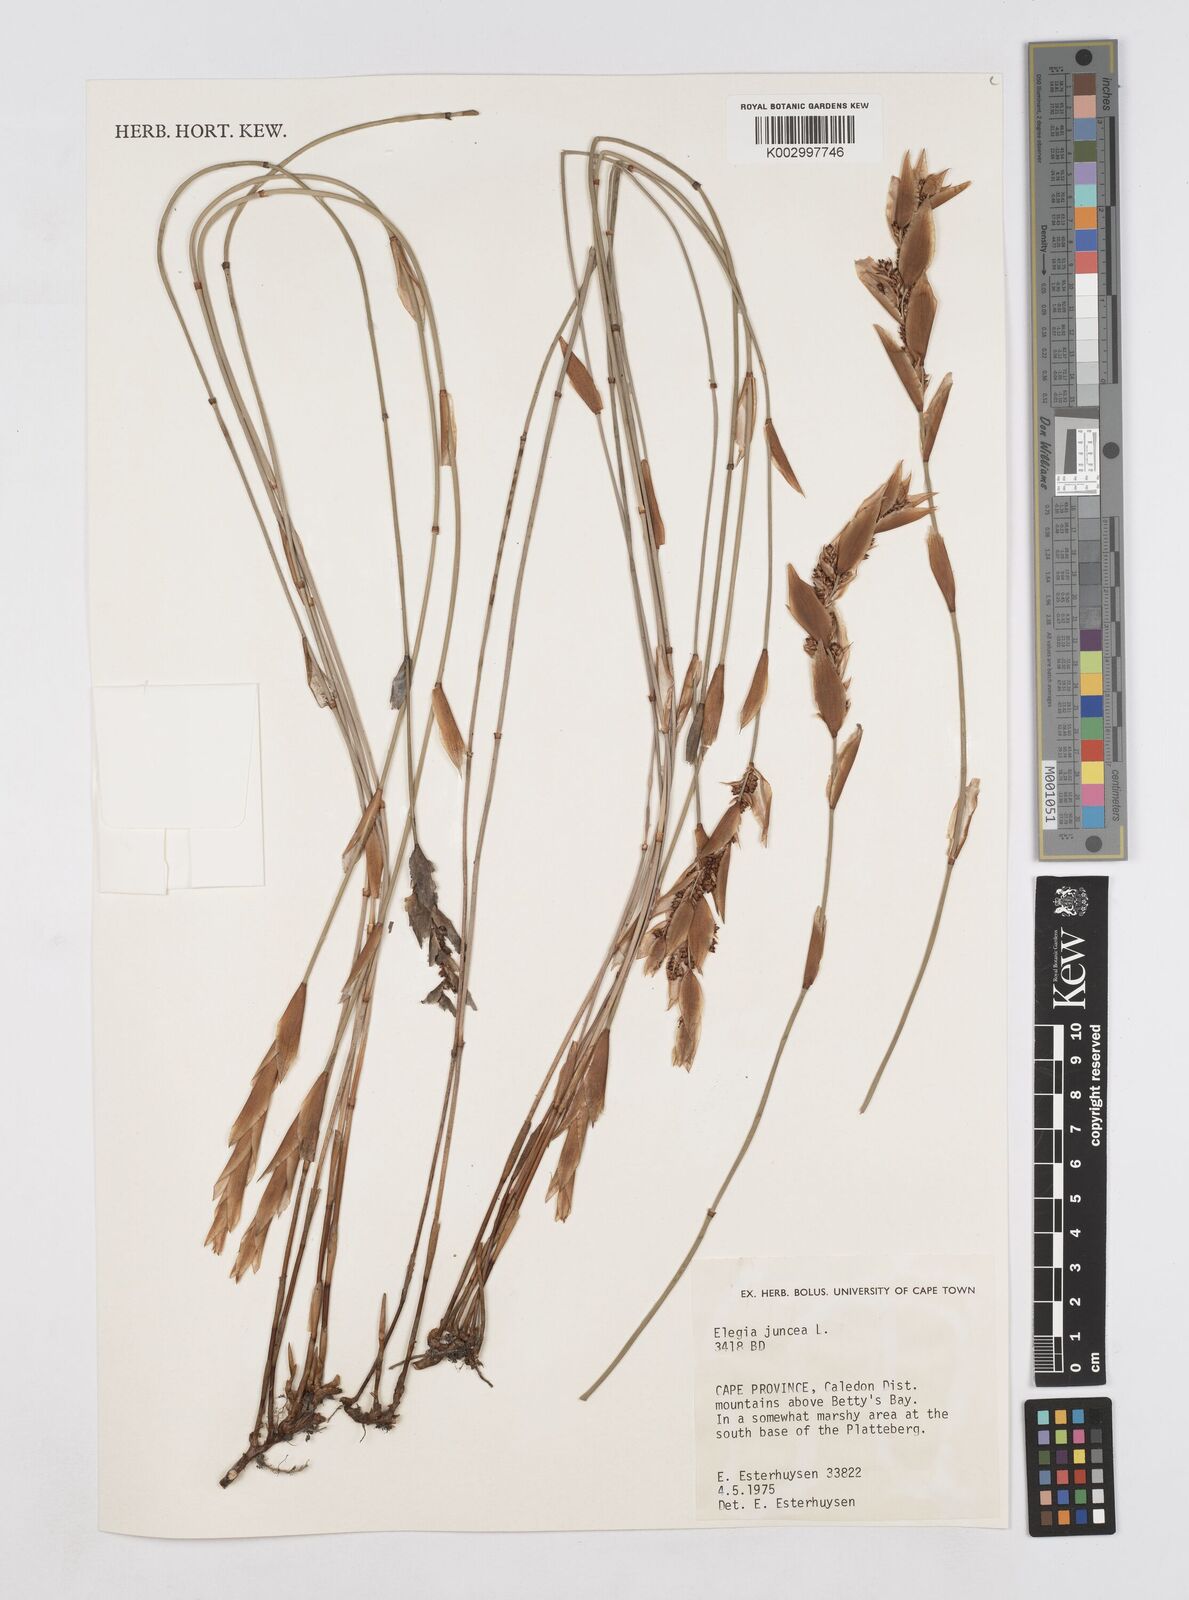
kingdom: Plantae
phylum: Tracheophyta
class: Liliopsida
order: Poales
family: Restionaceae
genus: Elegia
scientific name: Elegia juncea
